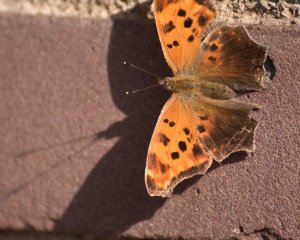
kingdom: Animalia
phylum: Arthropoda
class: Insecta
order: Lepidoptera
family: Nymphalidae
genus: Polygonia
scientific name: Polygonia comma
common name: Eastern Comma
